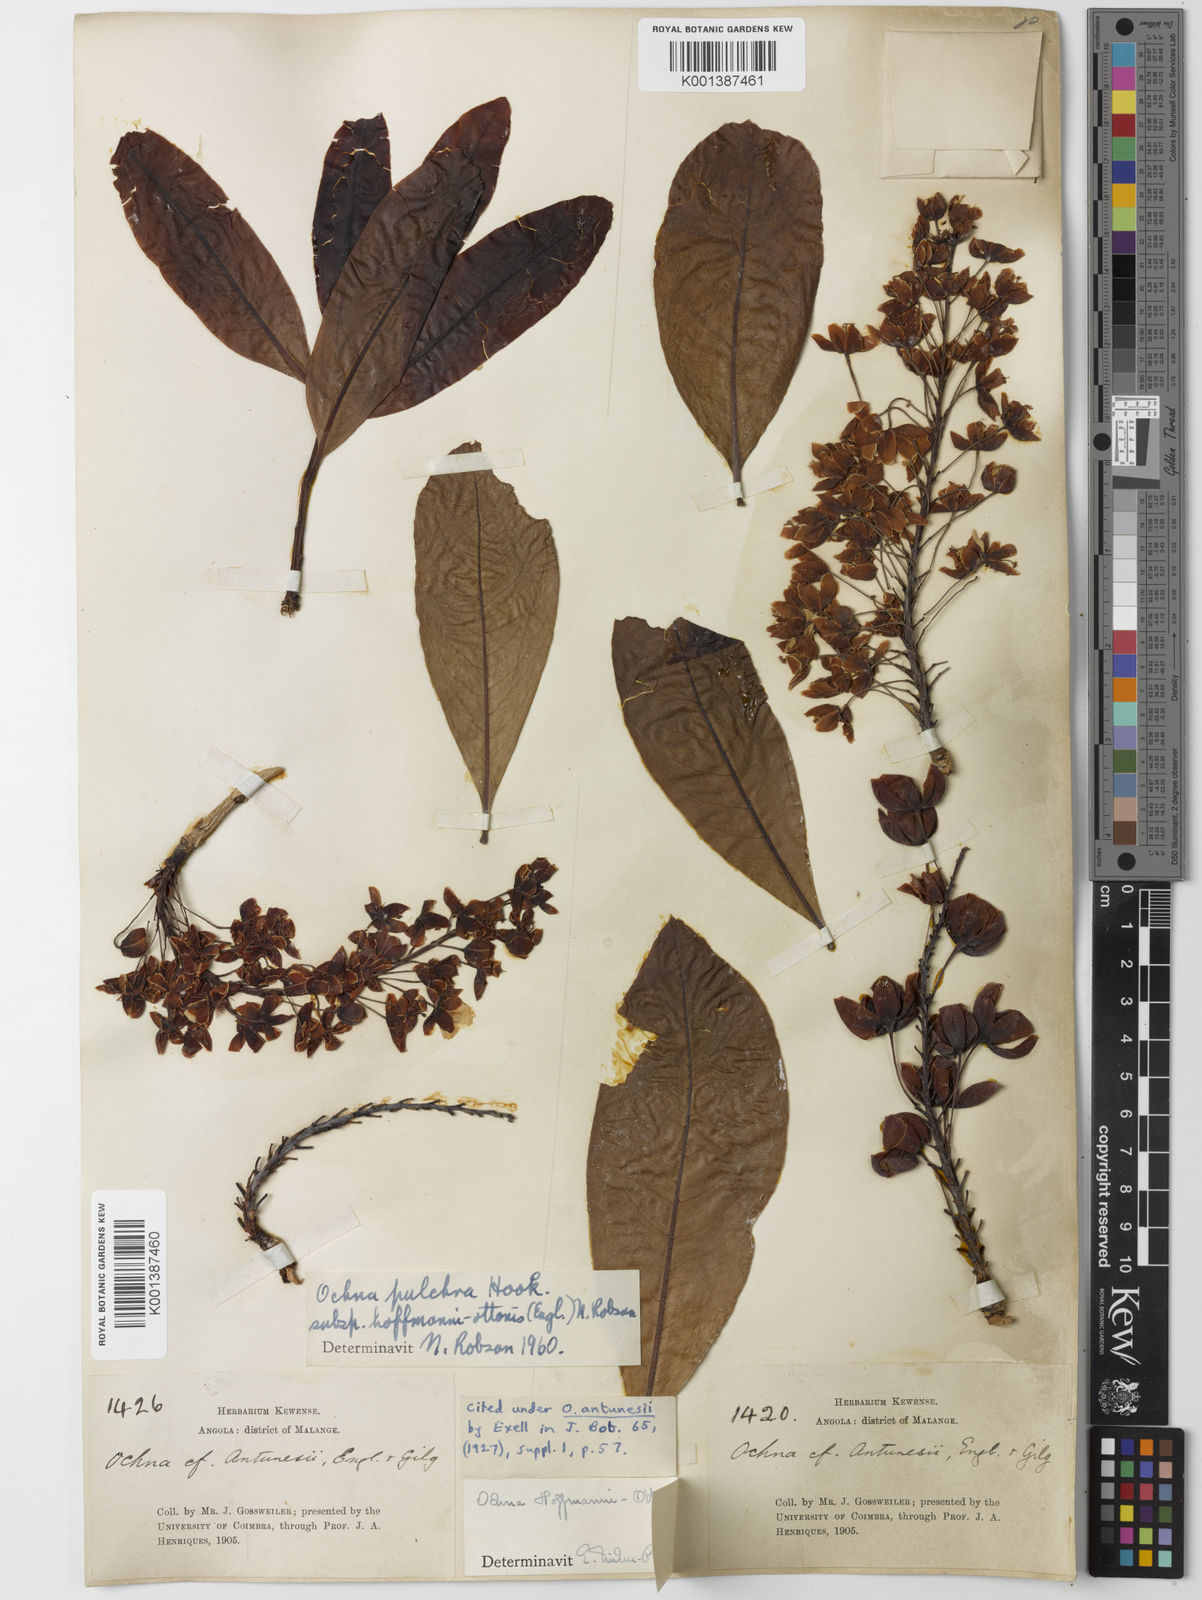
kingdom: Plantae
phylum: Tracheophyta
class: Magnoliopsida
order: Malpighiales
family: Ochnaceae
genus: Ochna
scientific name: Ochna pulchra
